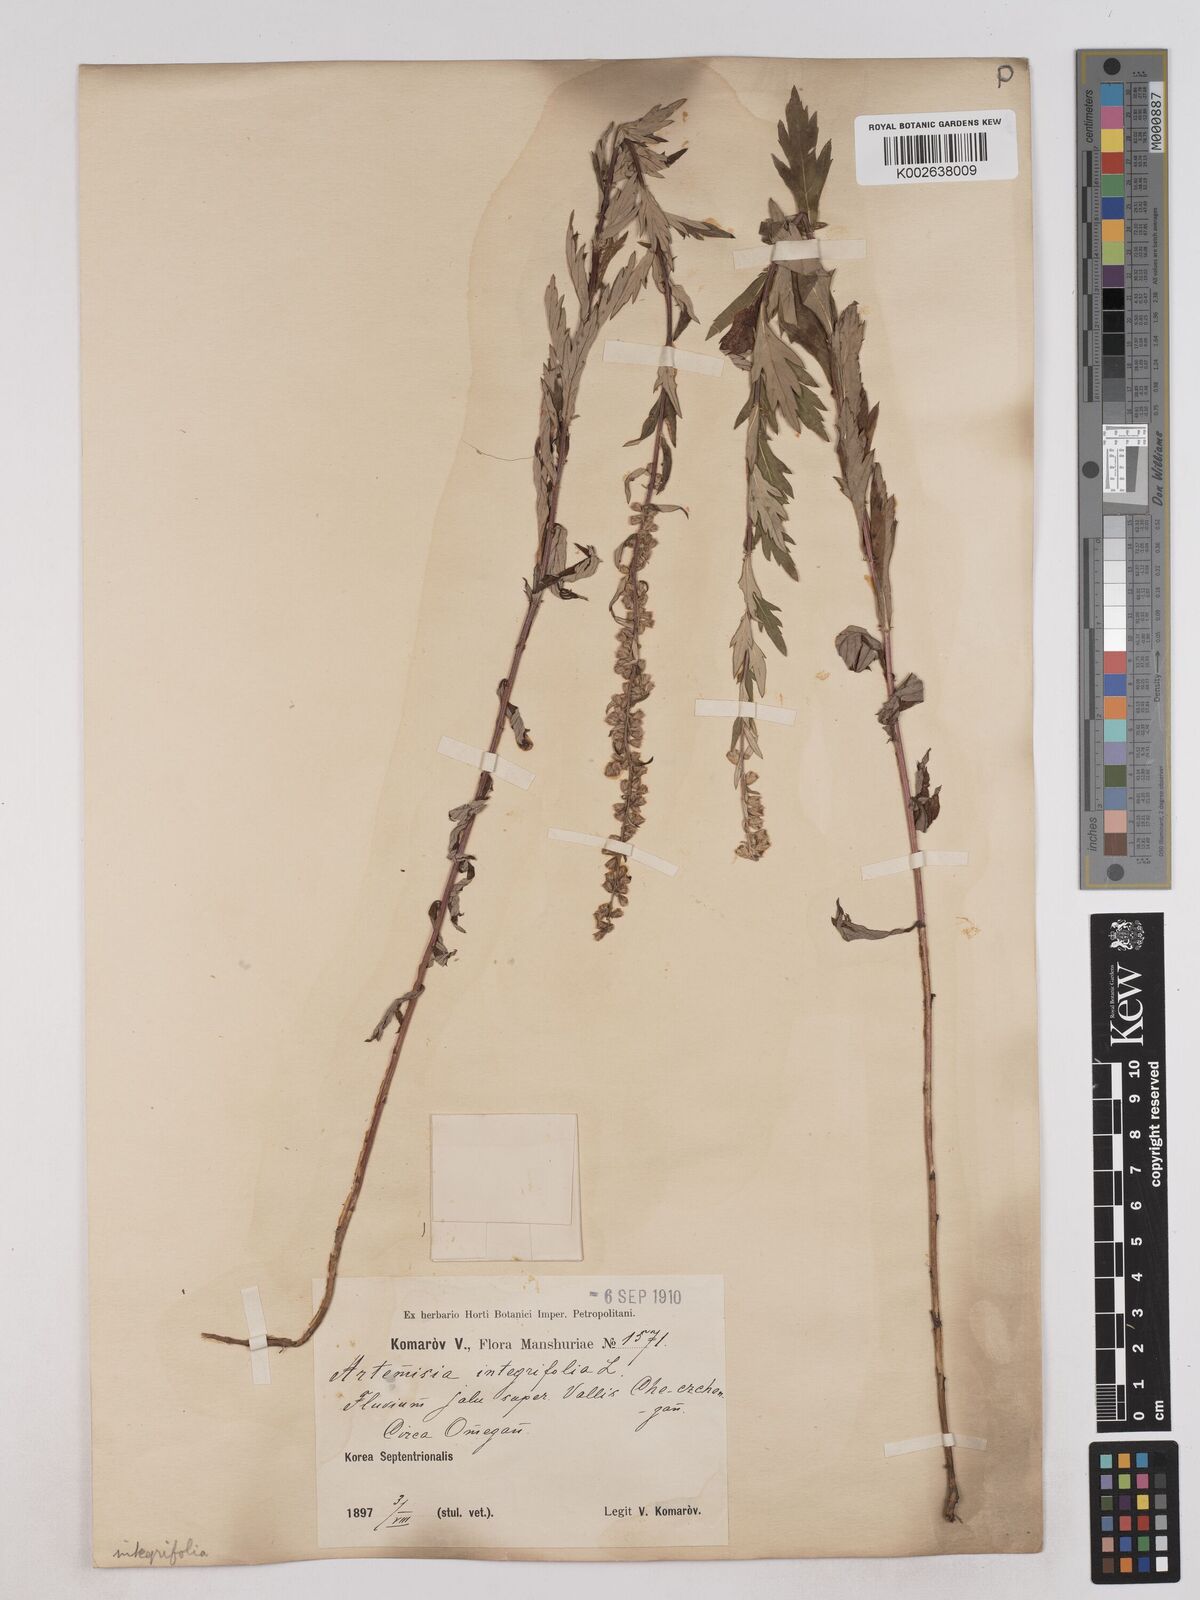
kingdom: Plantae
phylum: Tracheophyta
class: Magnoliopsida
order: Asterales
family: Asteraceae
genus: Artemisia
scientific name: Artemisia integrifolia
